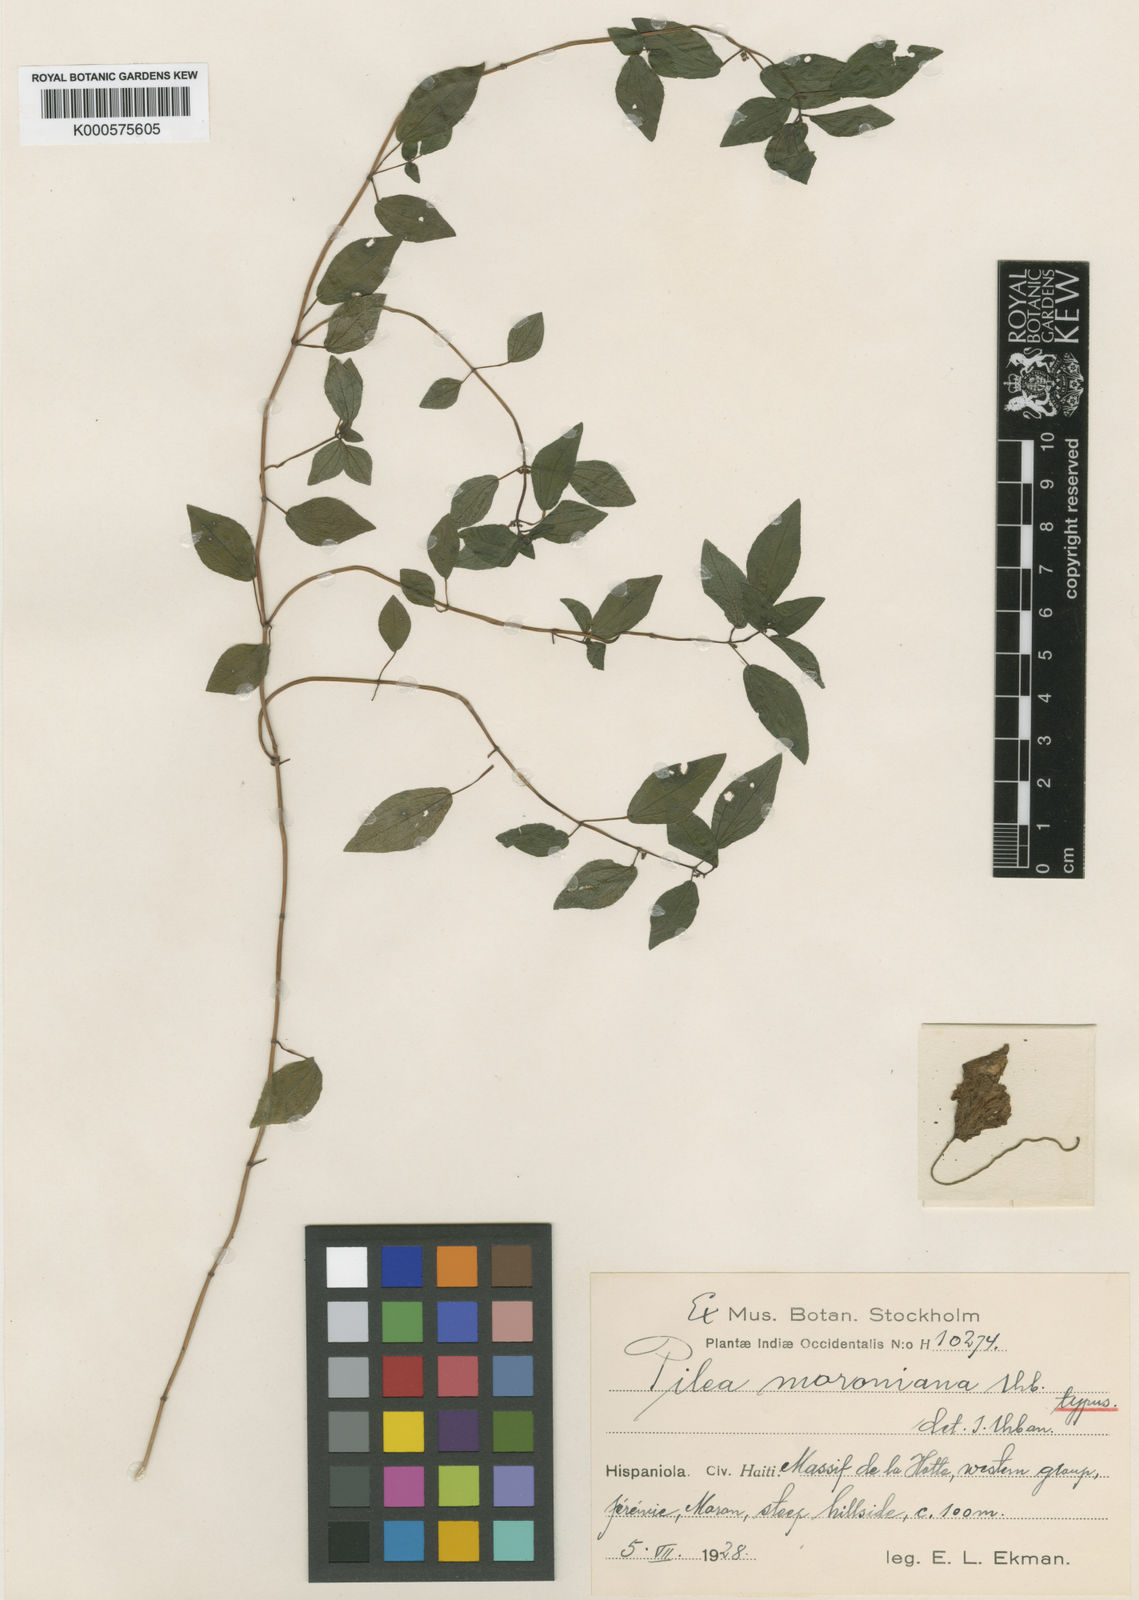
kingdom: Plantae
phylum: Tracheophyta
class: Magnoliopsida
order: Rosales
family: Urticaceae
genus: Pilea
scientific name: Pilea moroniana
